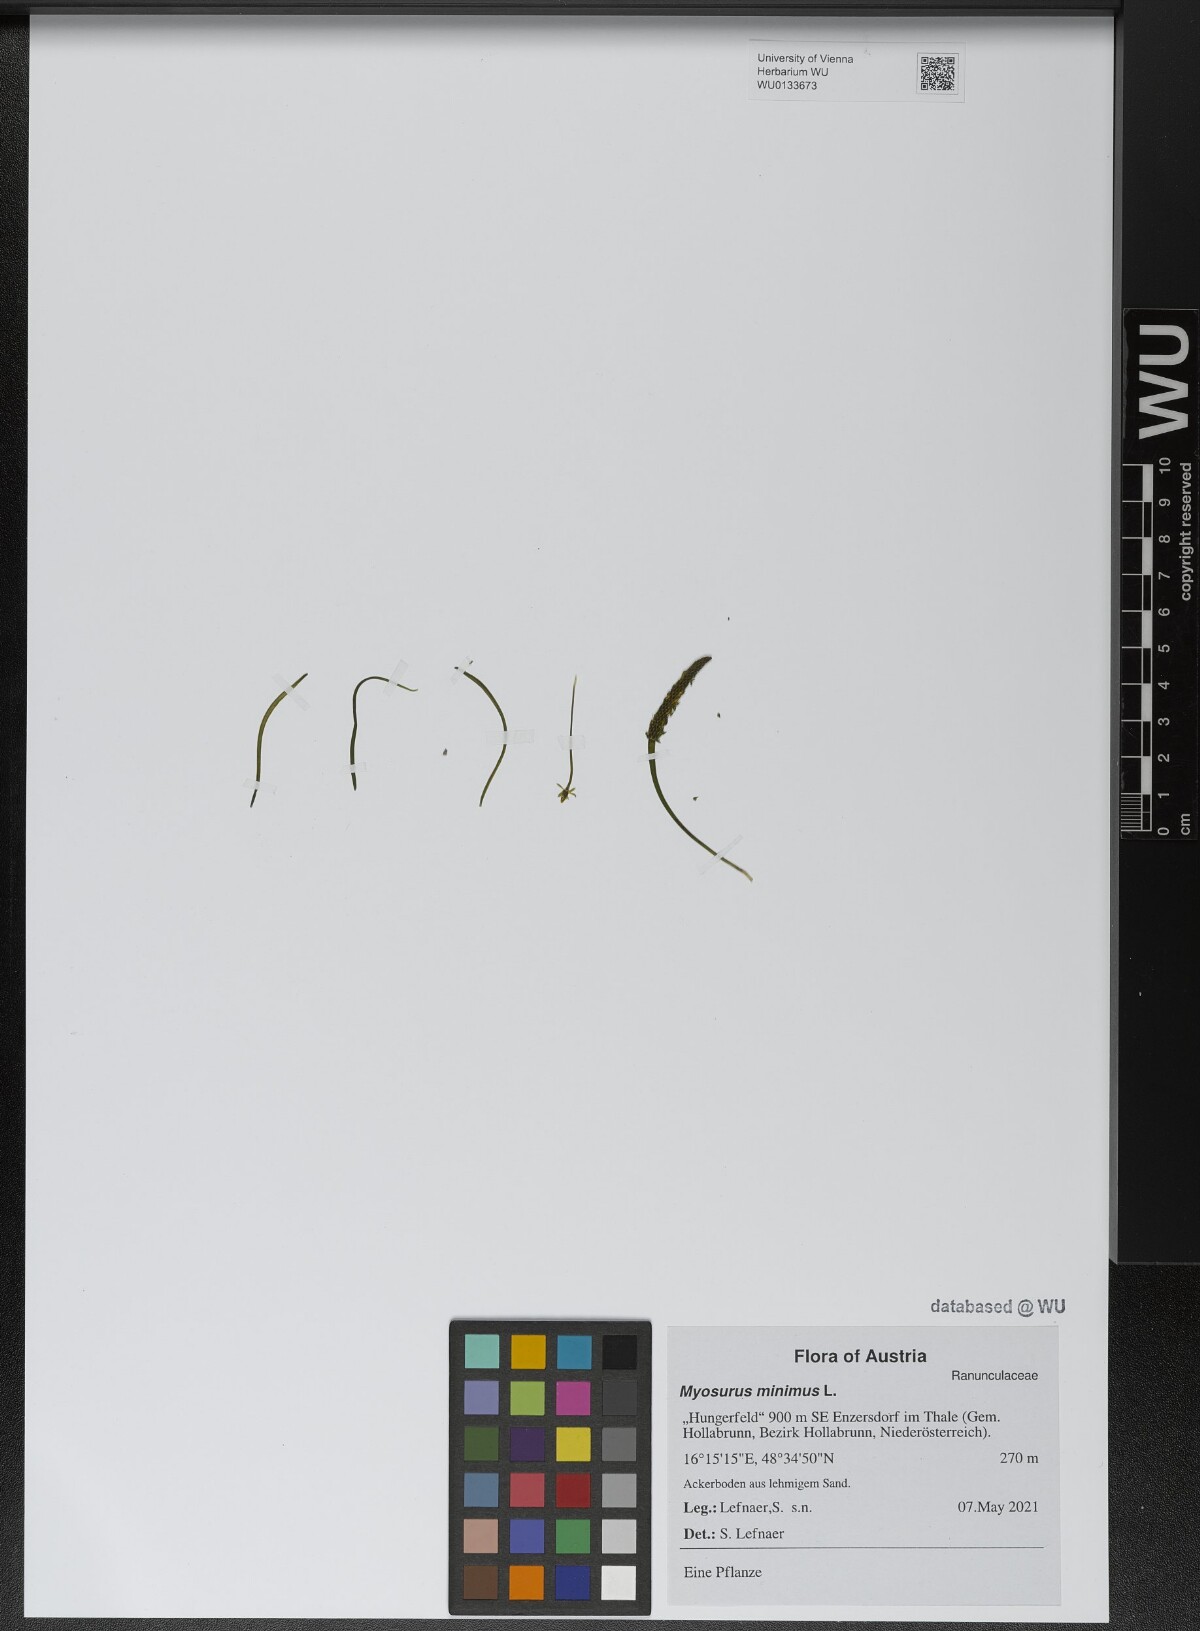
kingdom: Plantae
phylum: Tracheophyta
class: Magnoliopsida
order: Ranunculales
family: Ranunculaceae
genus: Myosurus
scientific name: Myosurus minimus
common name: Mousetail
